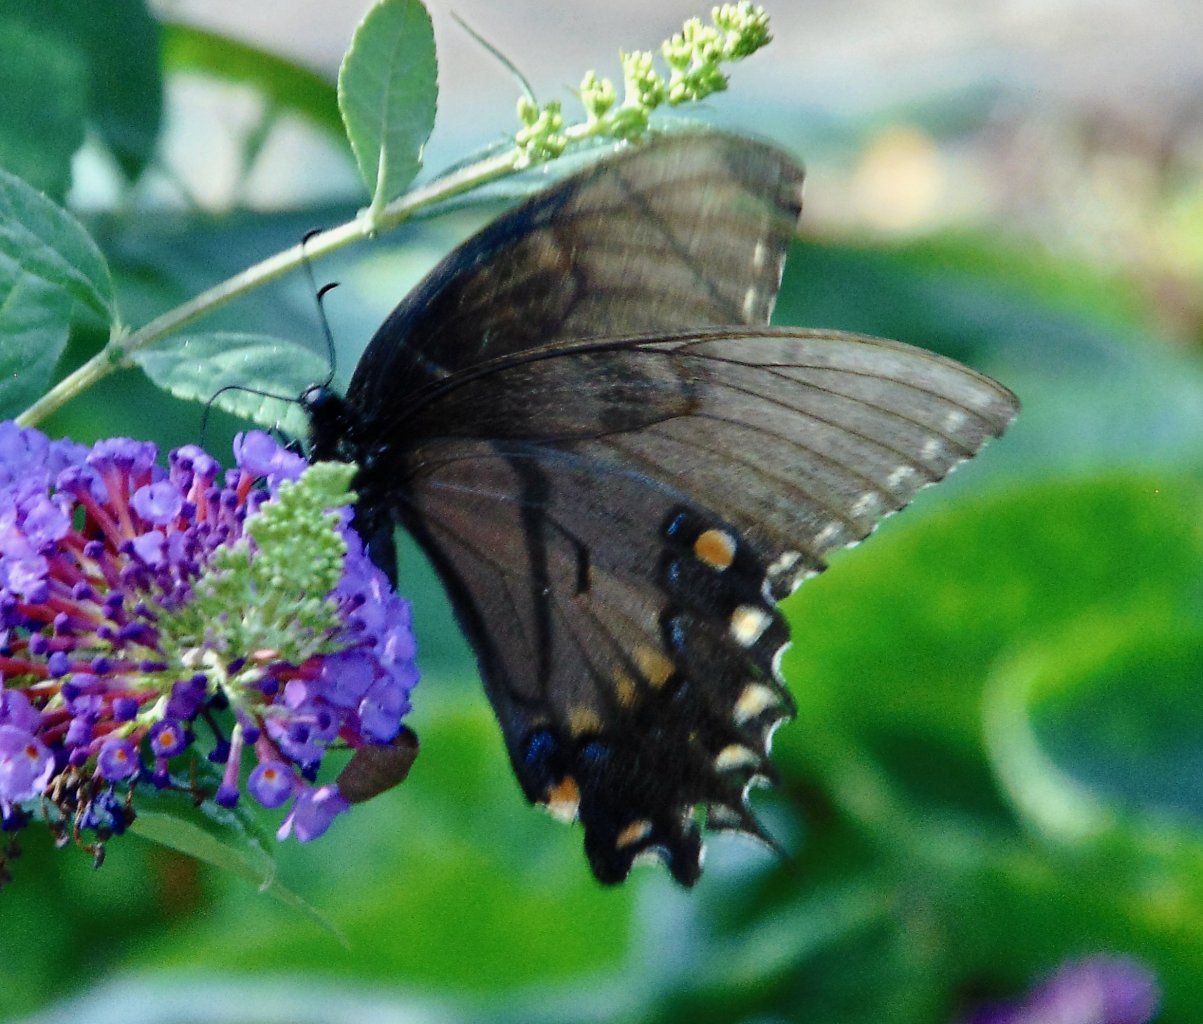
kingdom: Animalia
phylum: Arthropoda
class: Insecta
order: Lepidoptera
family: Papilionidae
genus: Pterourus
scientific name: Pterourus glaucus
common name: Eastern Tiger Swallowtail
